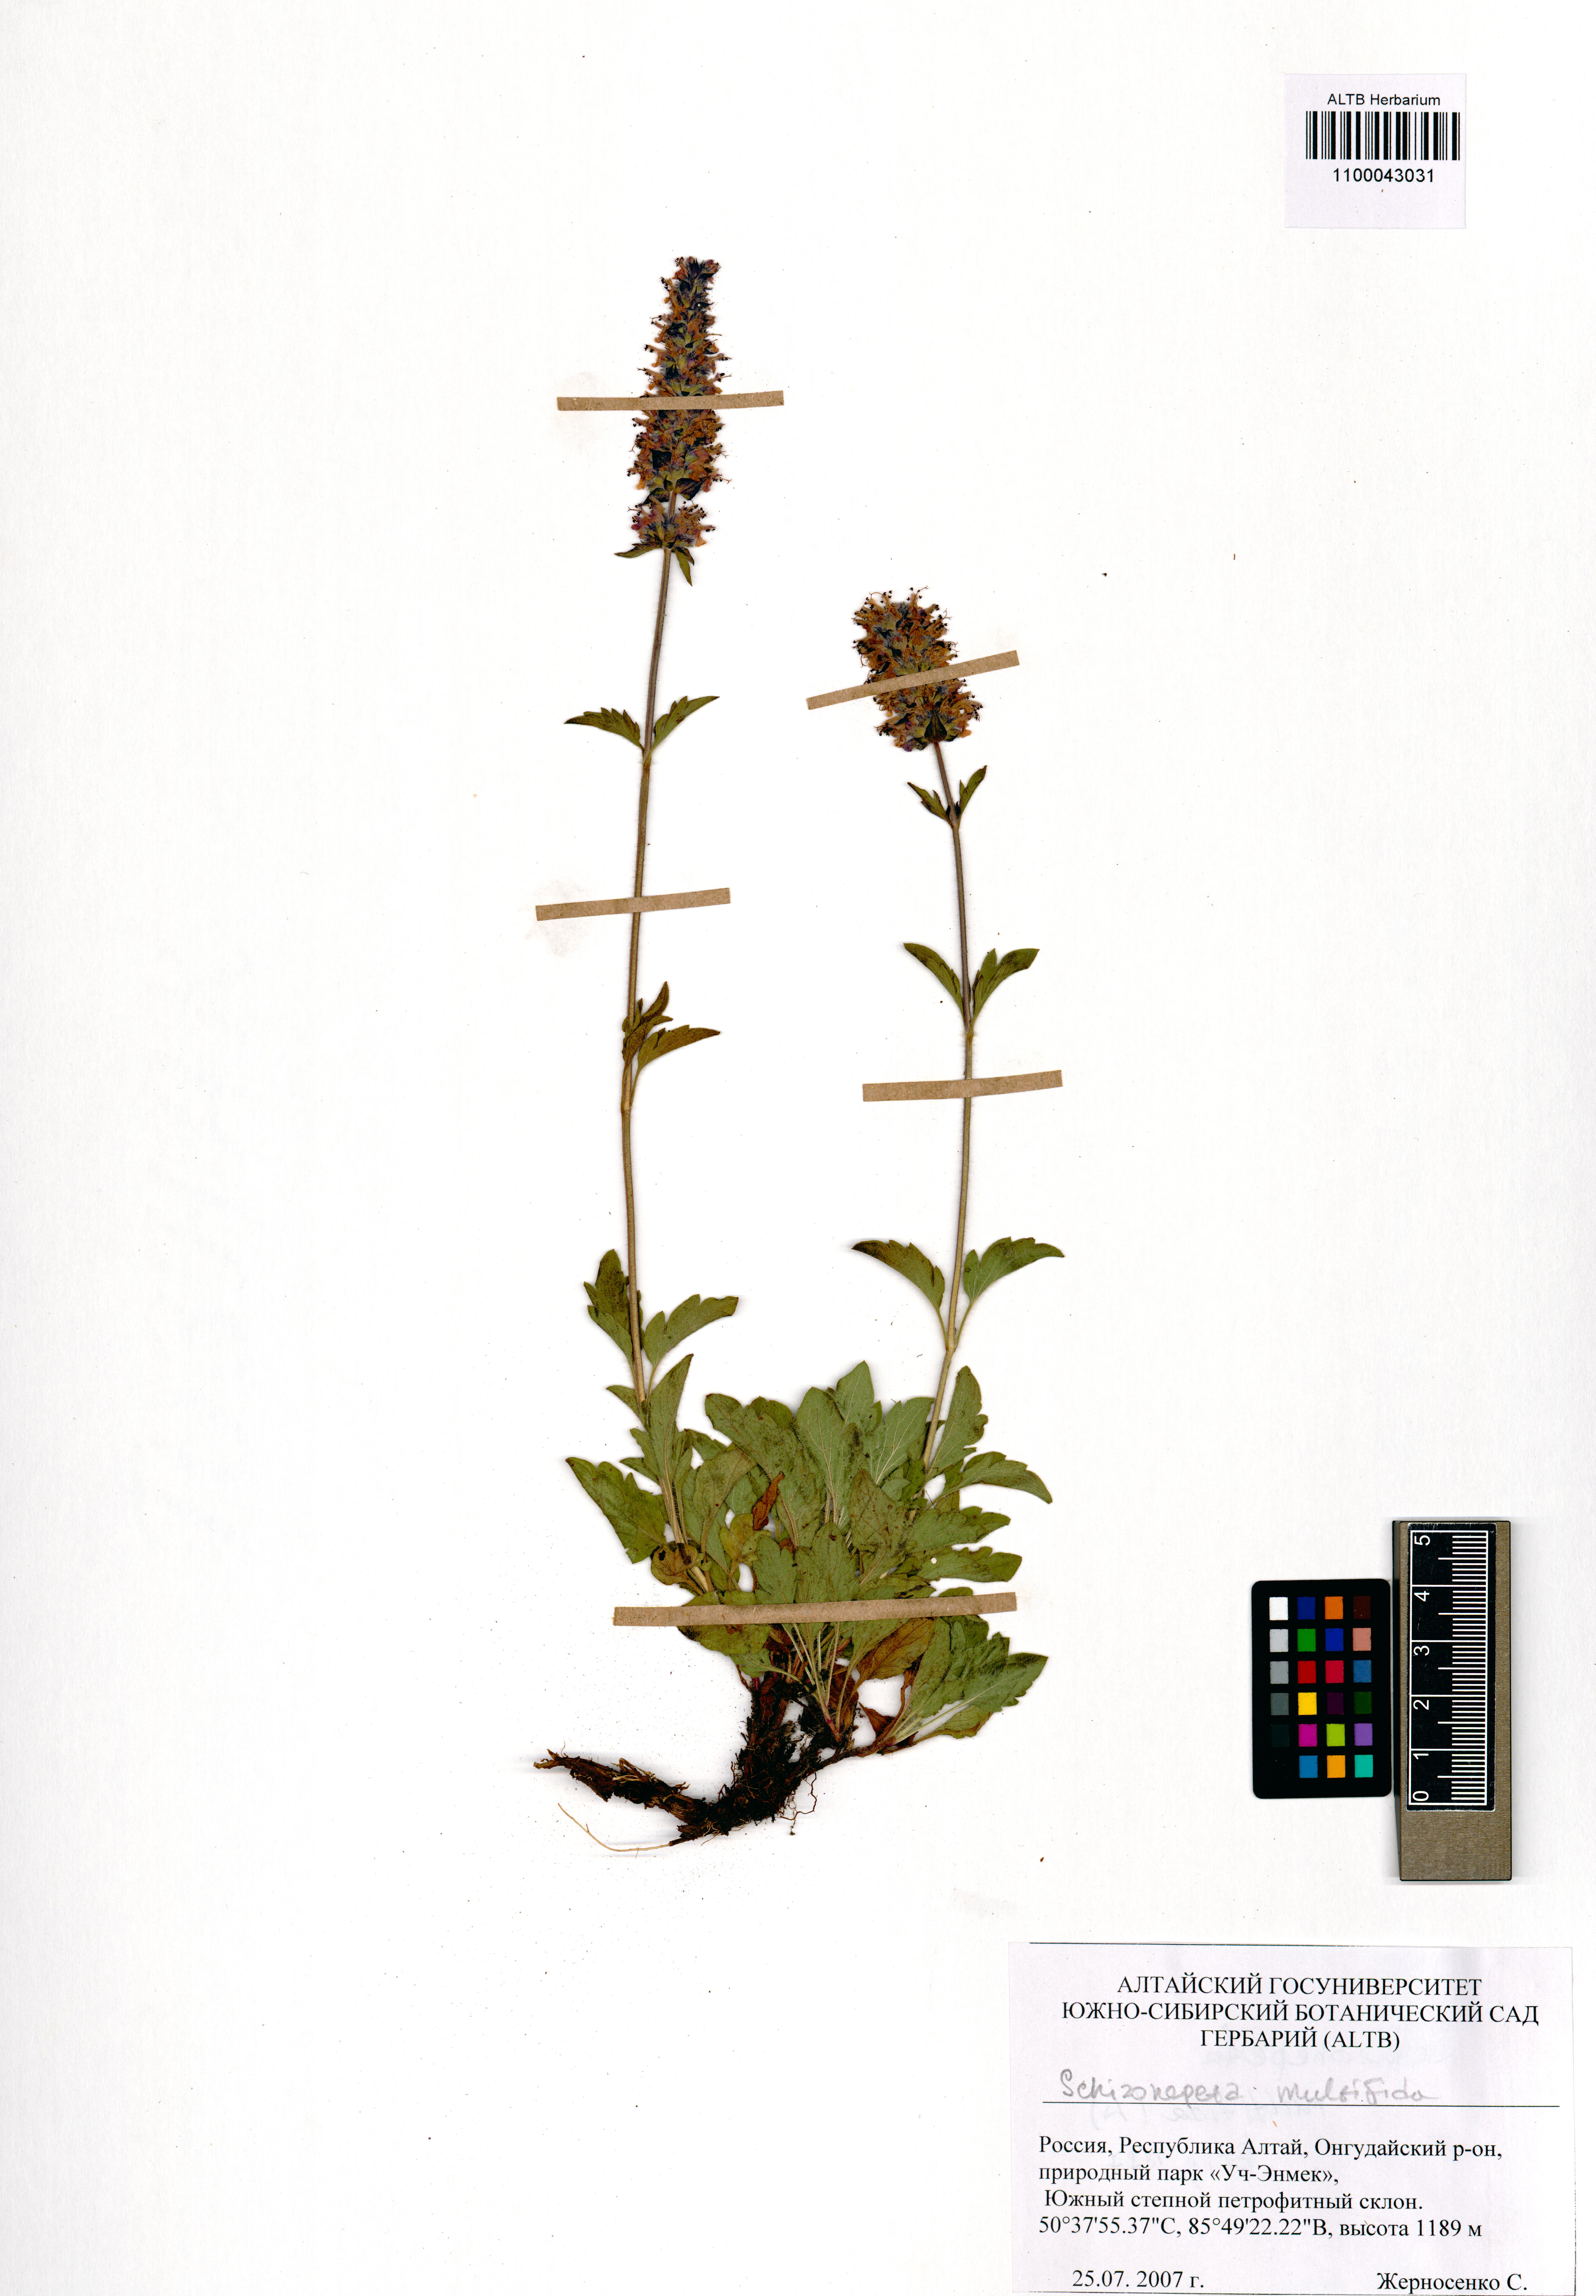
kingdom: Plantae
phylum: Tracheophyta
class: Magnoliopsida
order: Lamiales
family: Lamiaceae
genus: Nepeta
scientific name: Nepeta multifida
